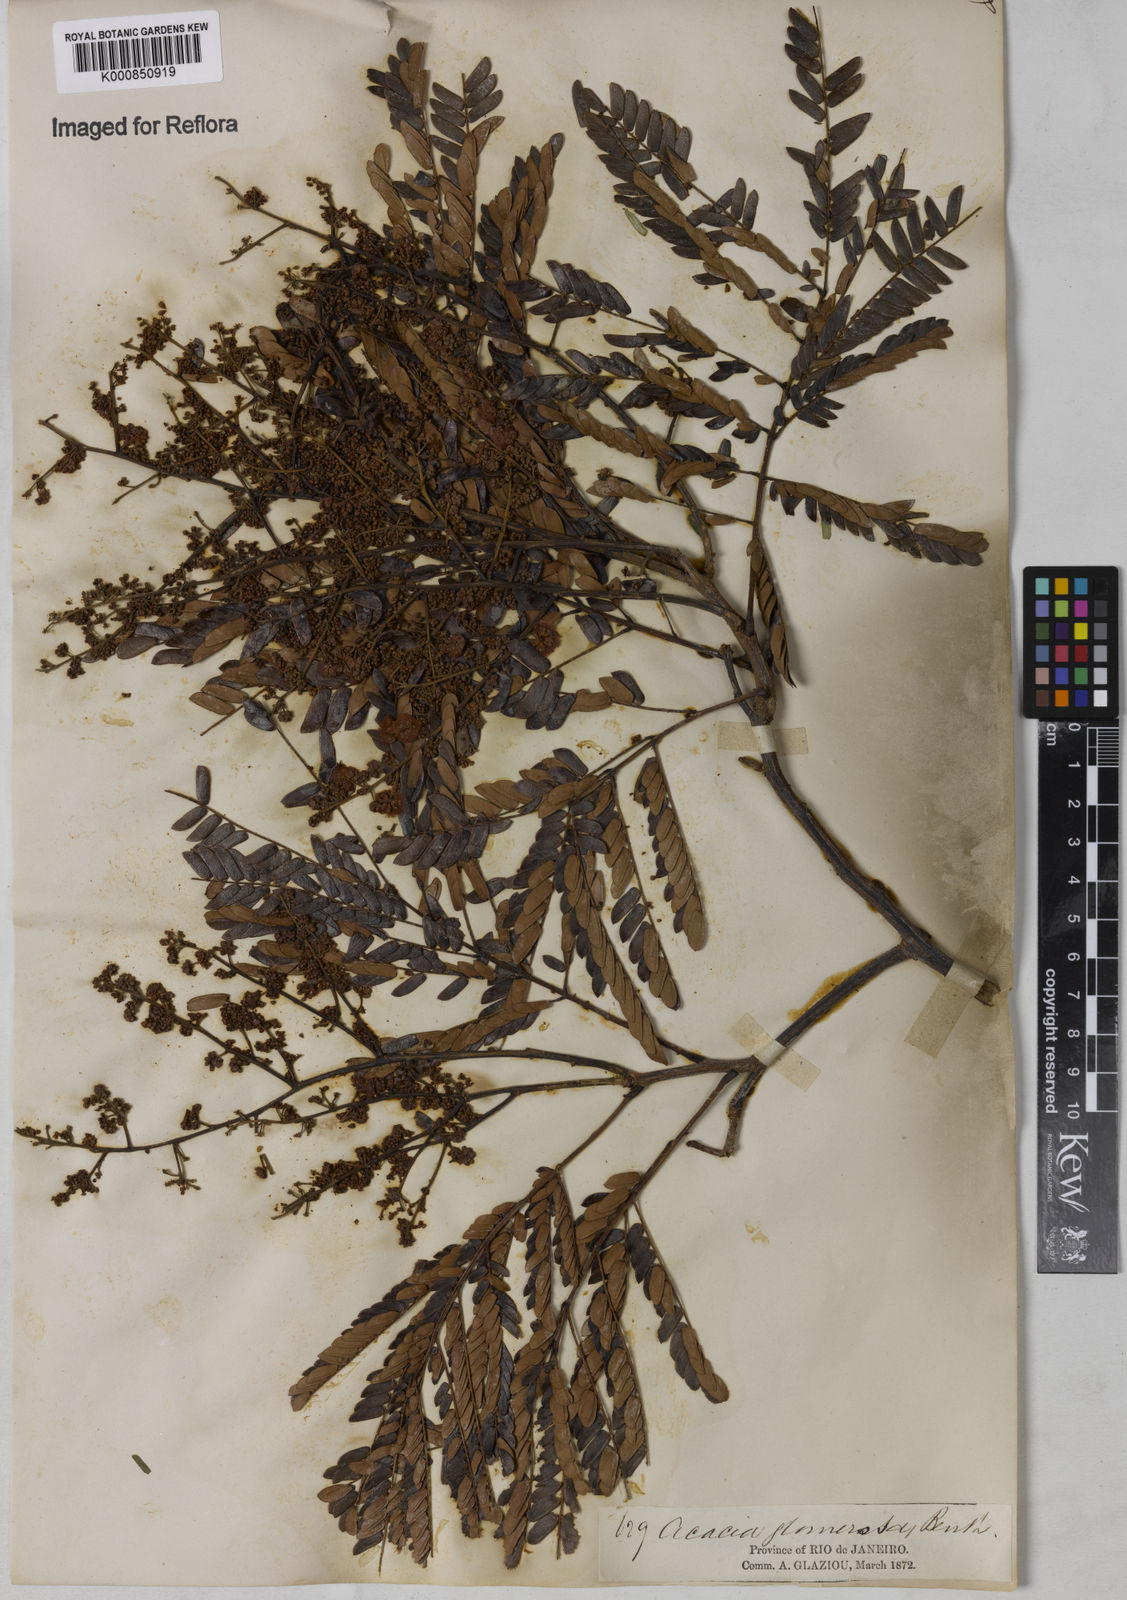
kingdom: Plantae
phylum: Tracheophyta
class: Magnoliopsida
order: Fabales
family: Fabaceae
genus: Senegalia
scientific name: Senegalia polyphylla
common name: White-tamarind
